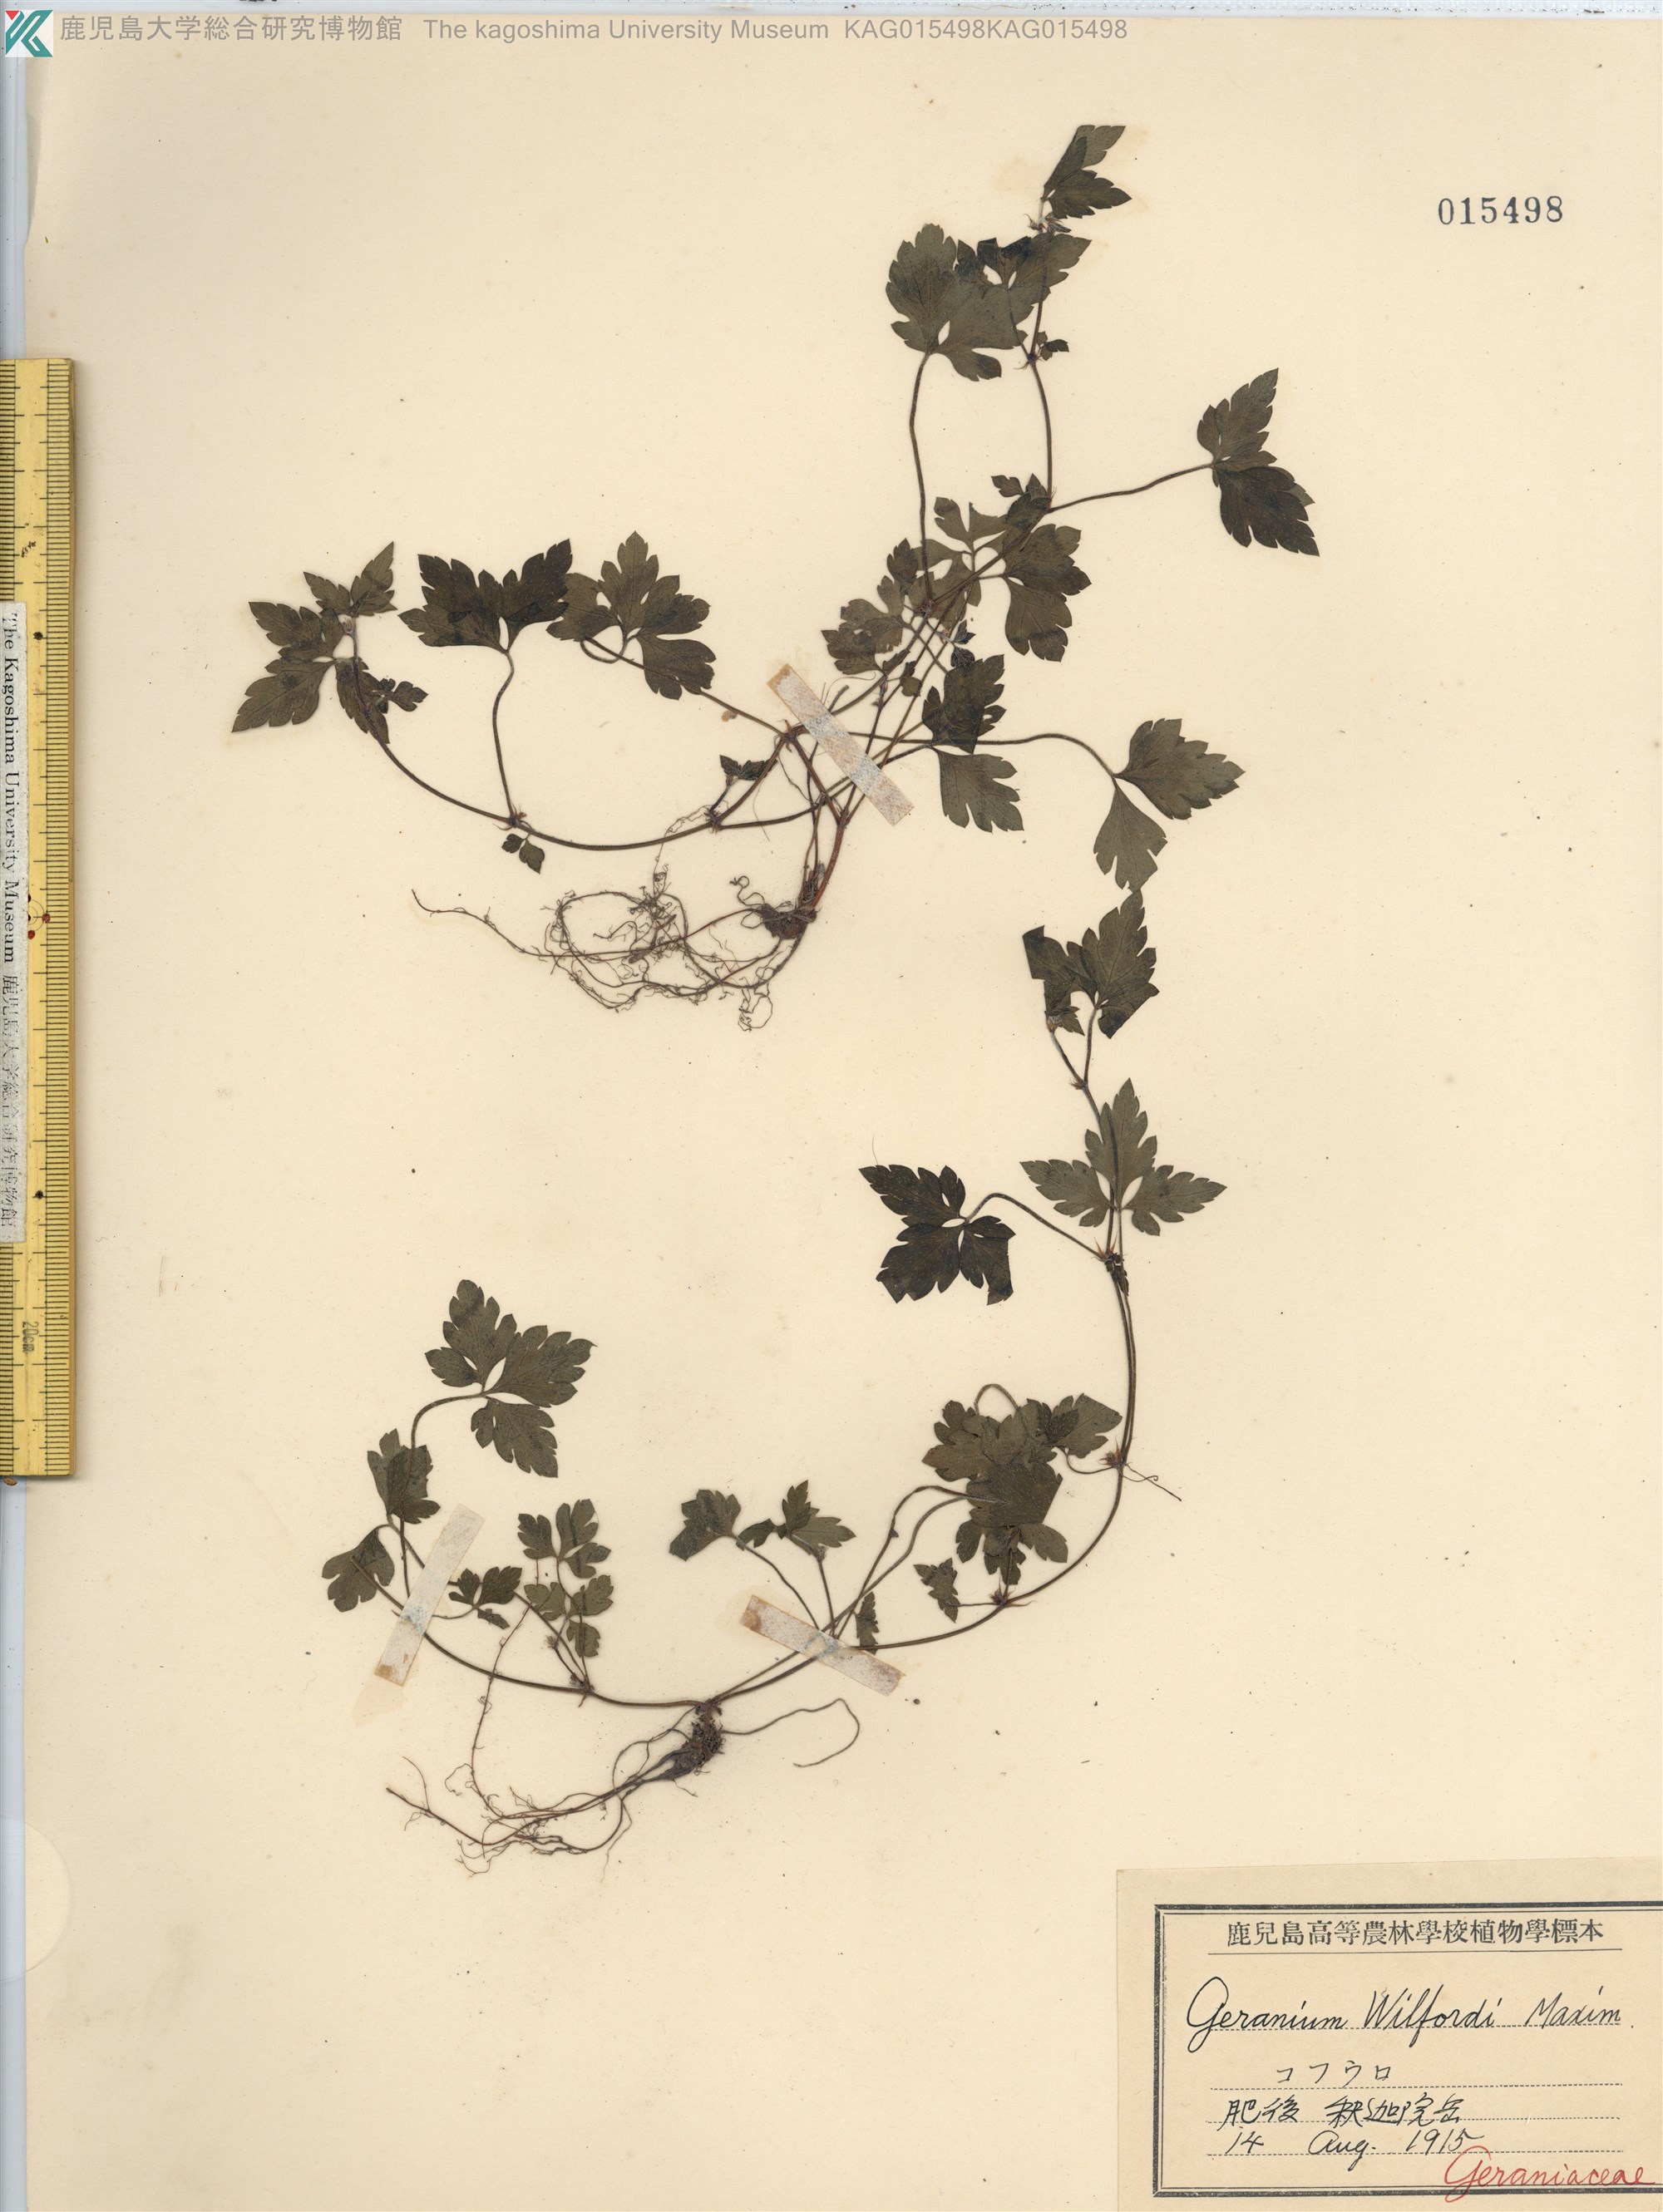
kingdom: Plantae
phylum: Tracheophyta
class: Magnoliopsida
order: Geraniales
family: Geraniaceae
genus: Geranium
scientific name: Geranium tripartitum
